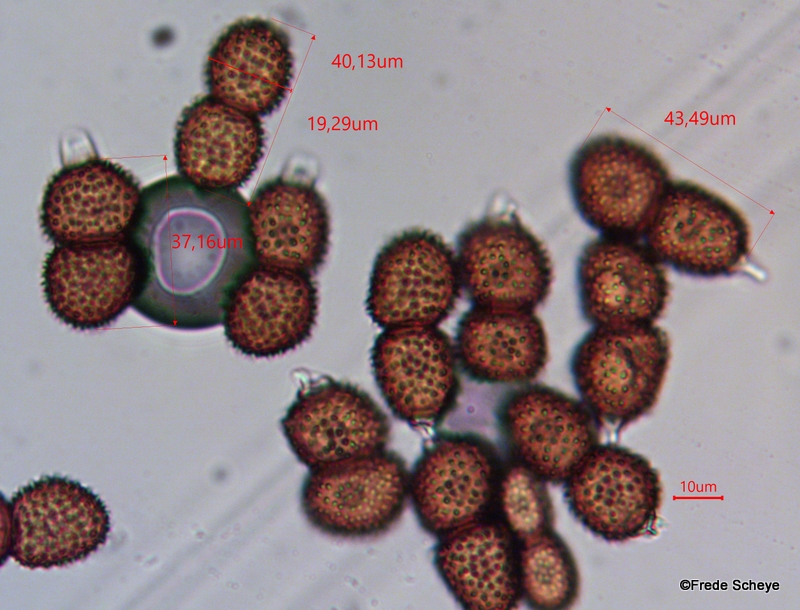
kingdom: Fungi
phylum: Basidiomycota
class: Pucciniomycetes
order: Pucciniales
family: Tranzscheliaceae
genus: Tranzschelia
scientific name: Tranzschelia anemones
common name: anemone-knæksporerust
